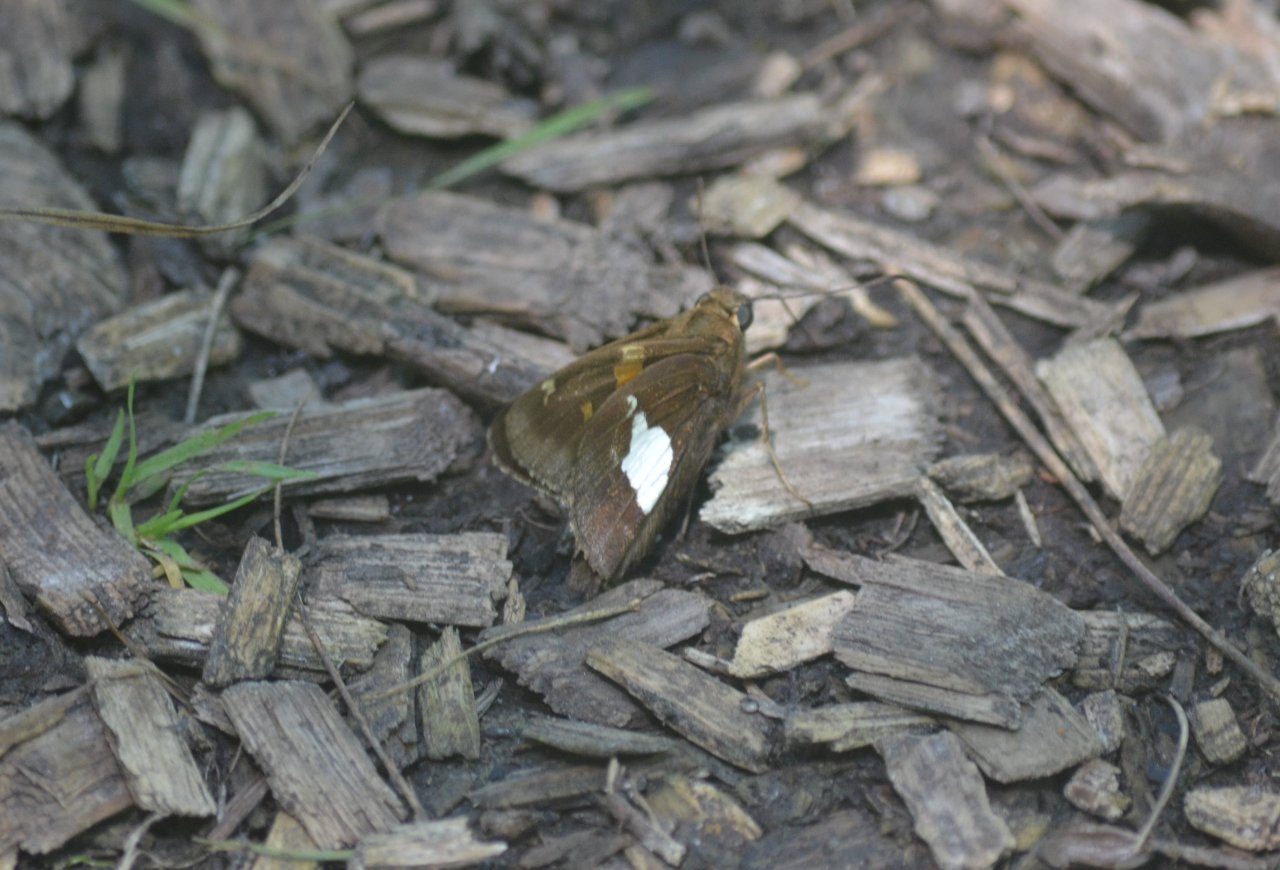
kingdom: Animalia
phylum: Arthropoda
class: Insecta
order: Lepidoptera
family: Hesperiidae
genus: Epargyreus
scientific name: Epargyreus clarus
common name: Silver-spotted Skipper
